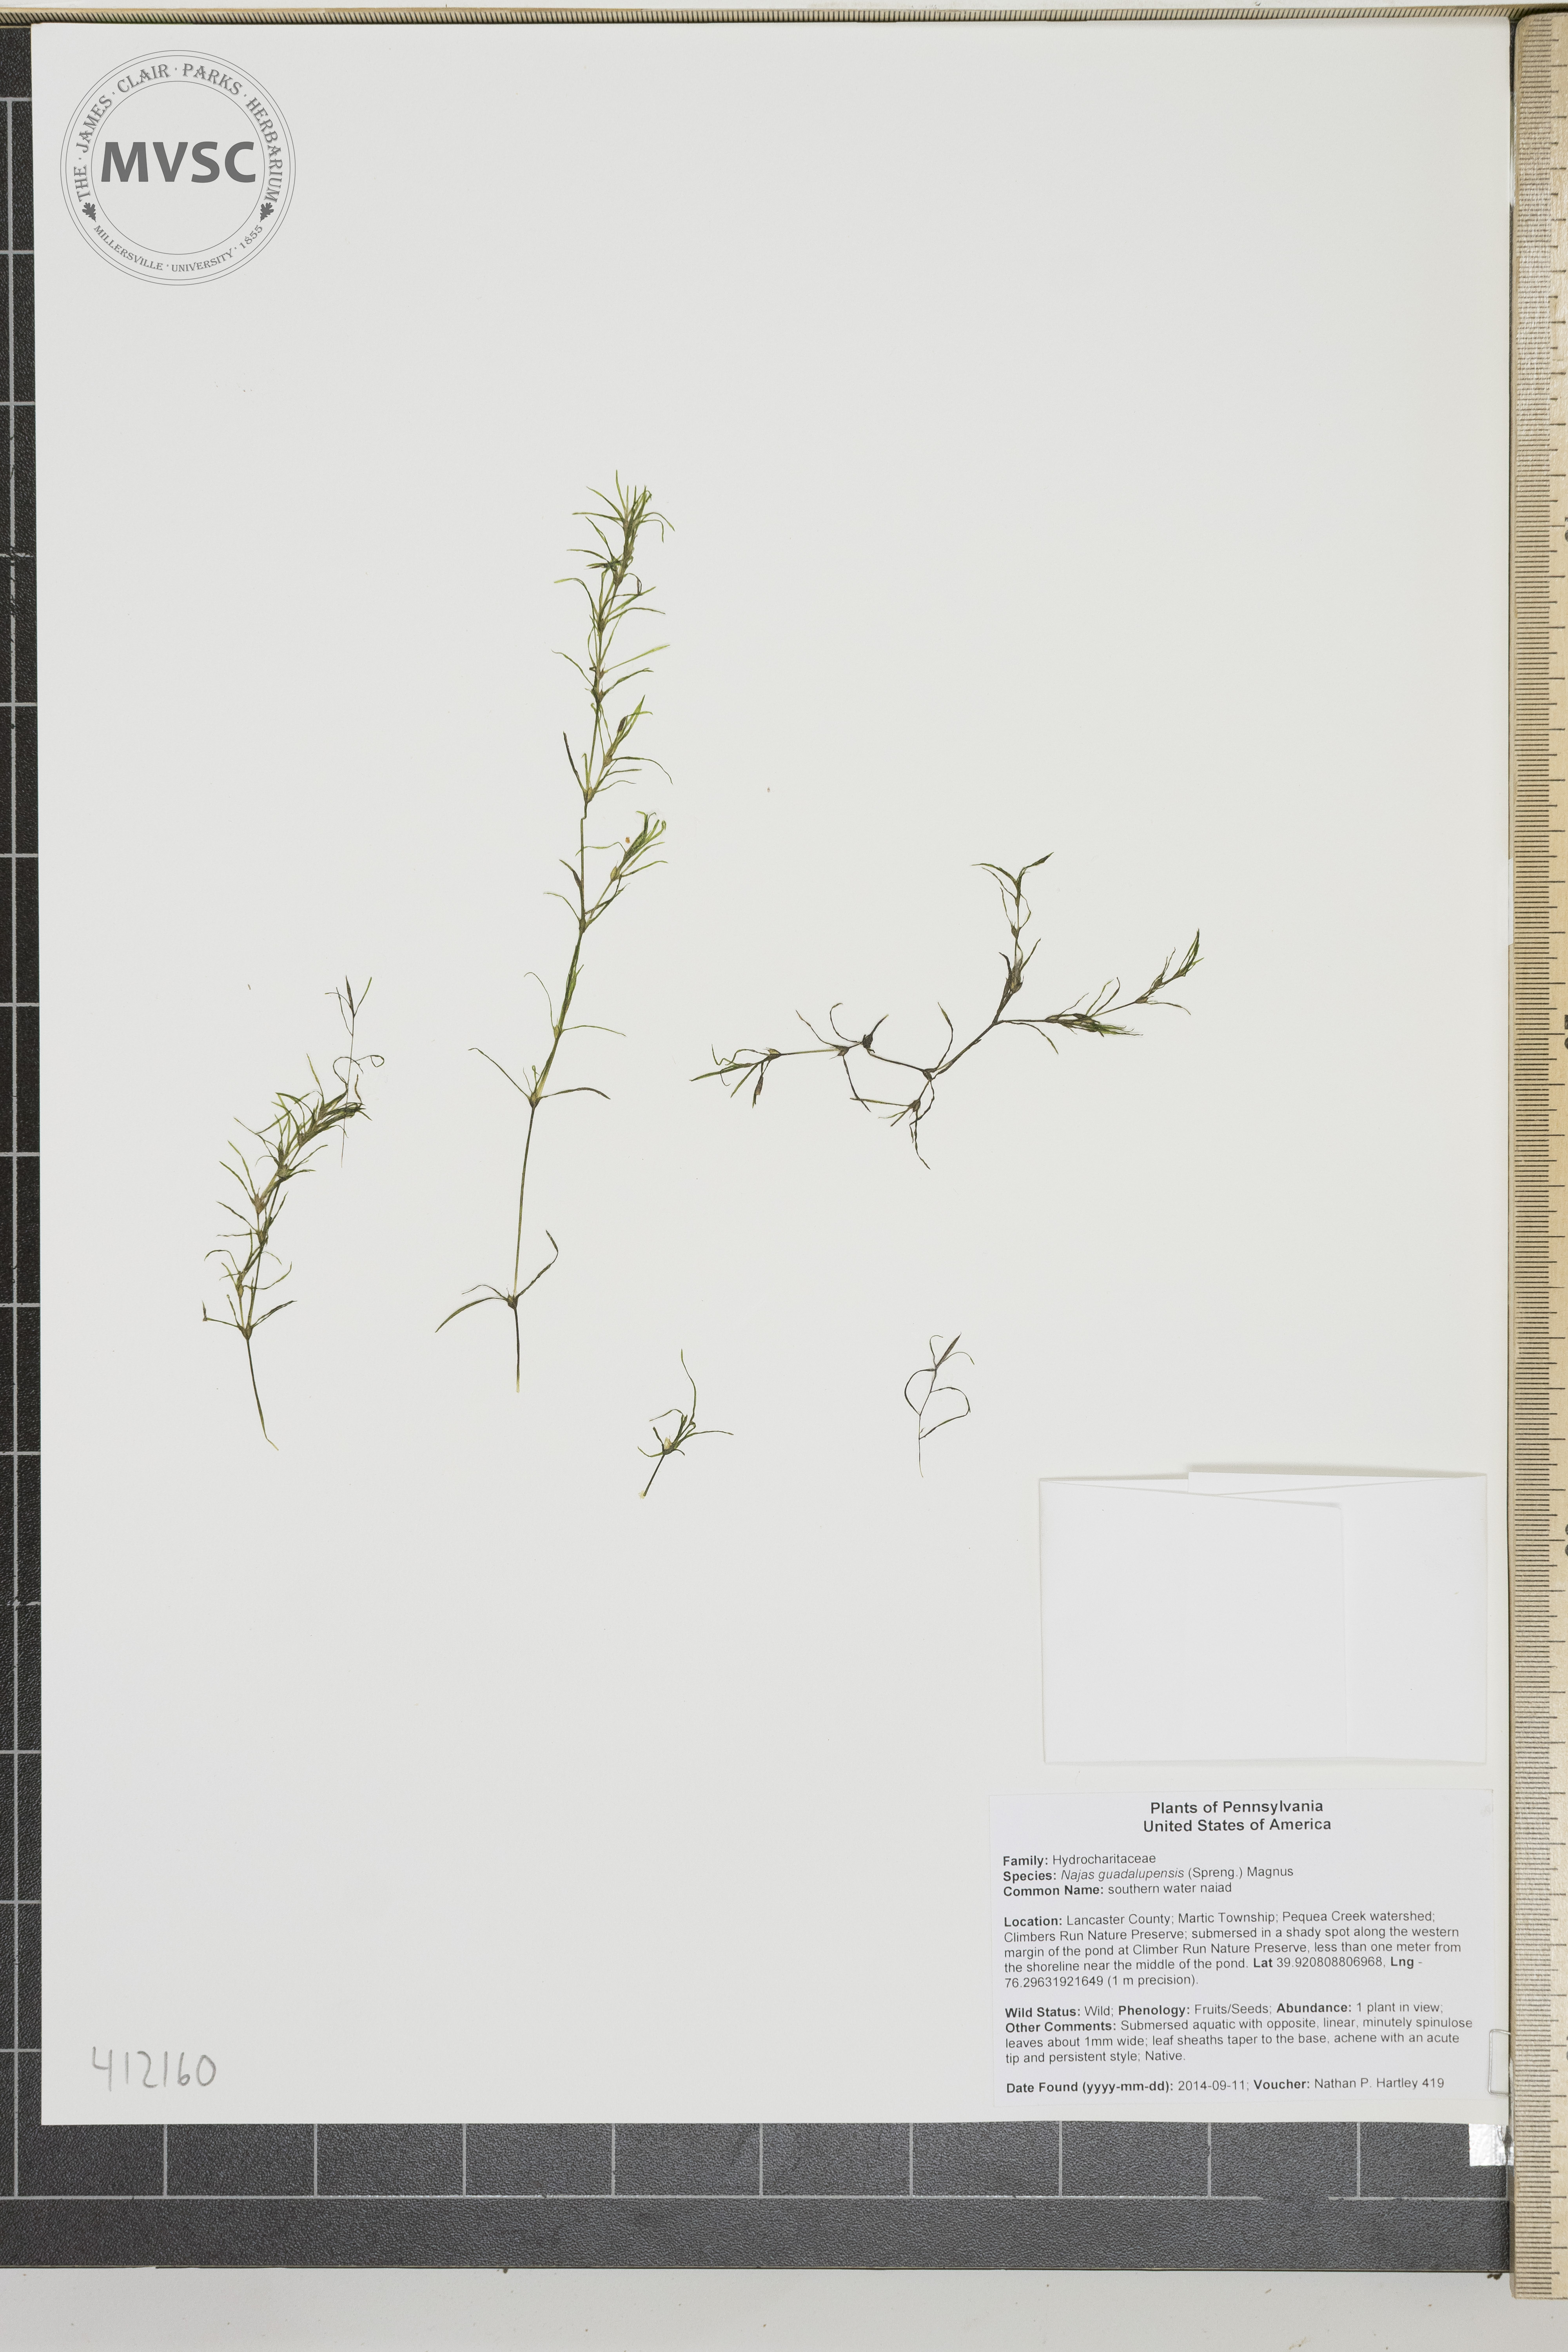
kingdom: Plantae
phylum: Tracheophyta
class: Liliopsida
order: Alismatales
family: Hydrocharitaceae
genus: Najas
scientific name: Najas guadalupensis
